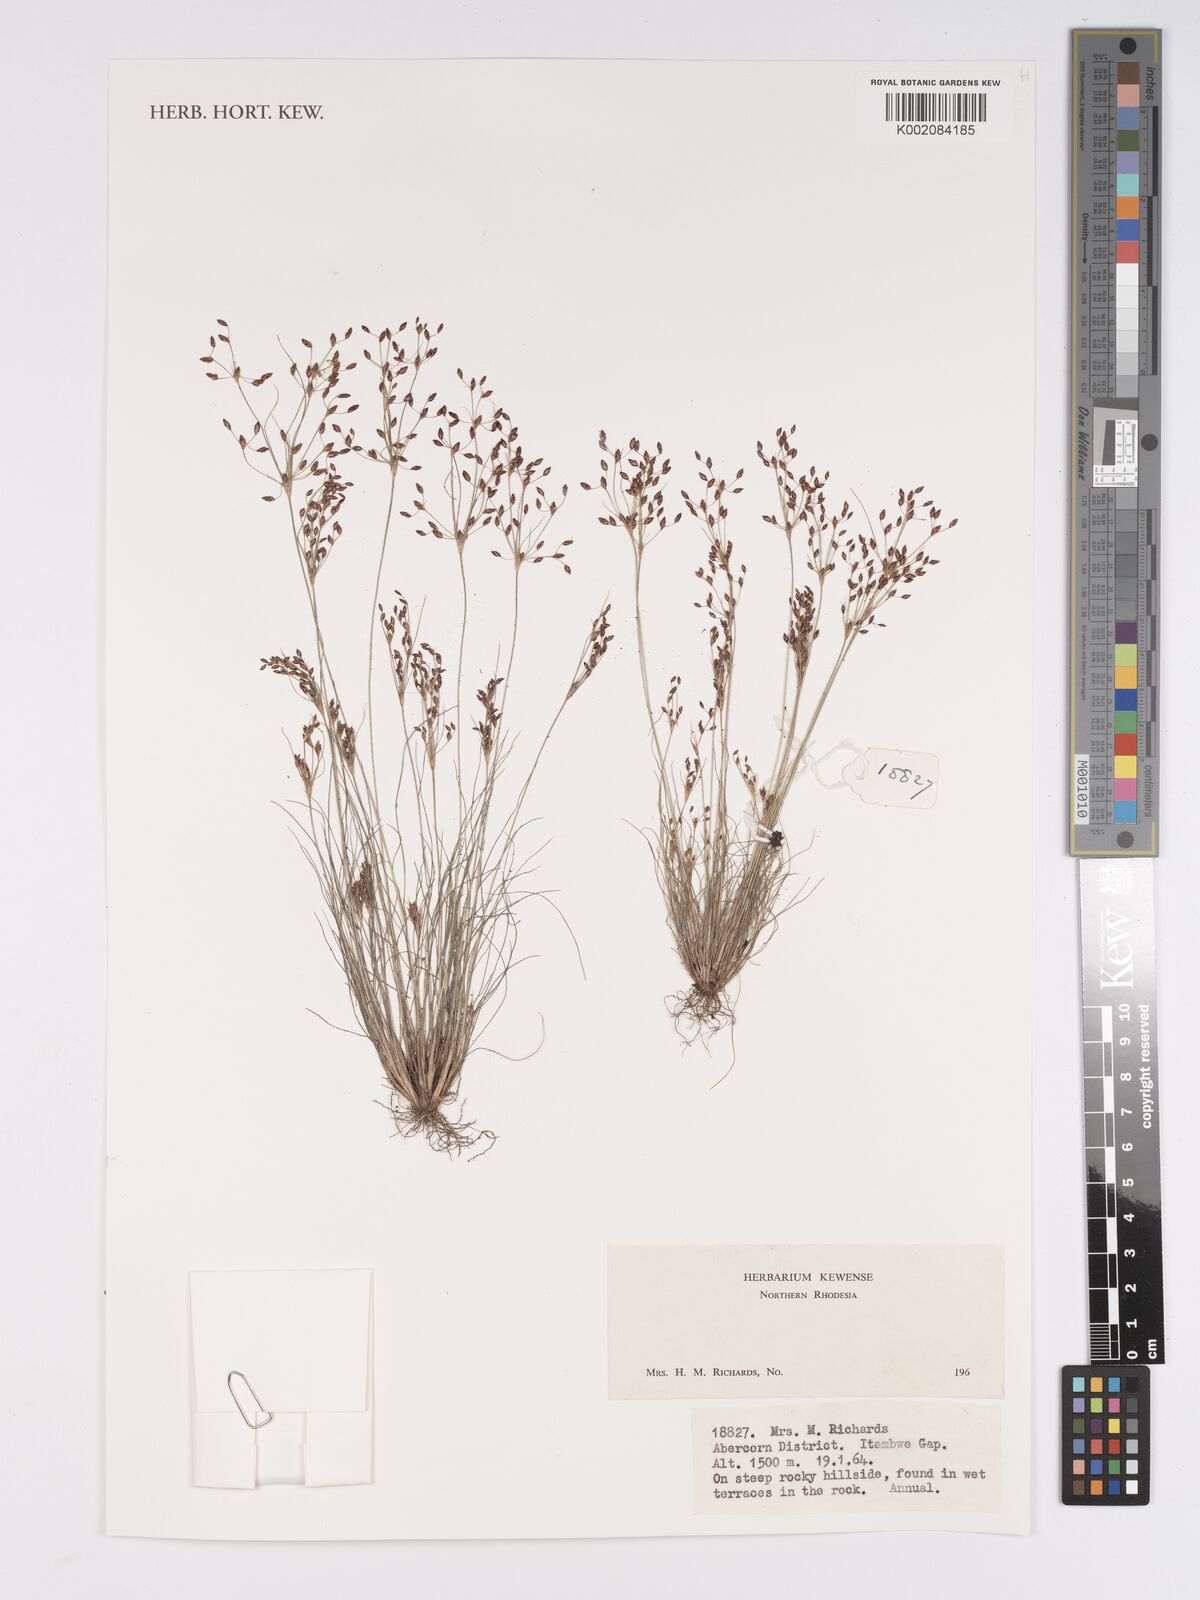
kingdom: Plantae
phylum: Tracheophyta
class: Liliopsida
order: Poales
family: Cyperaceae
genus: Bulbostylis
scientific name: Bulbostylis
